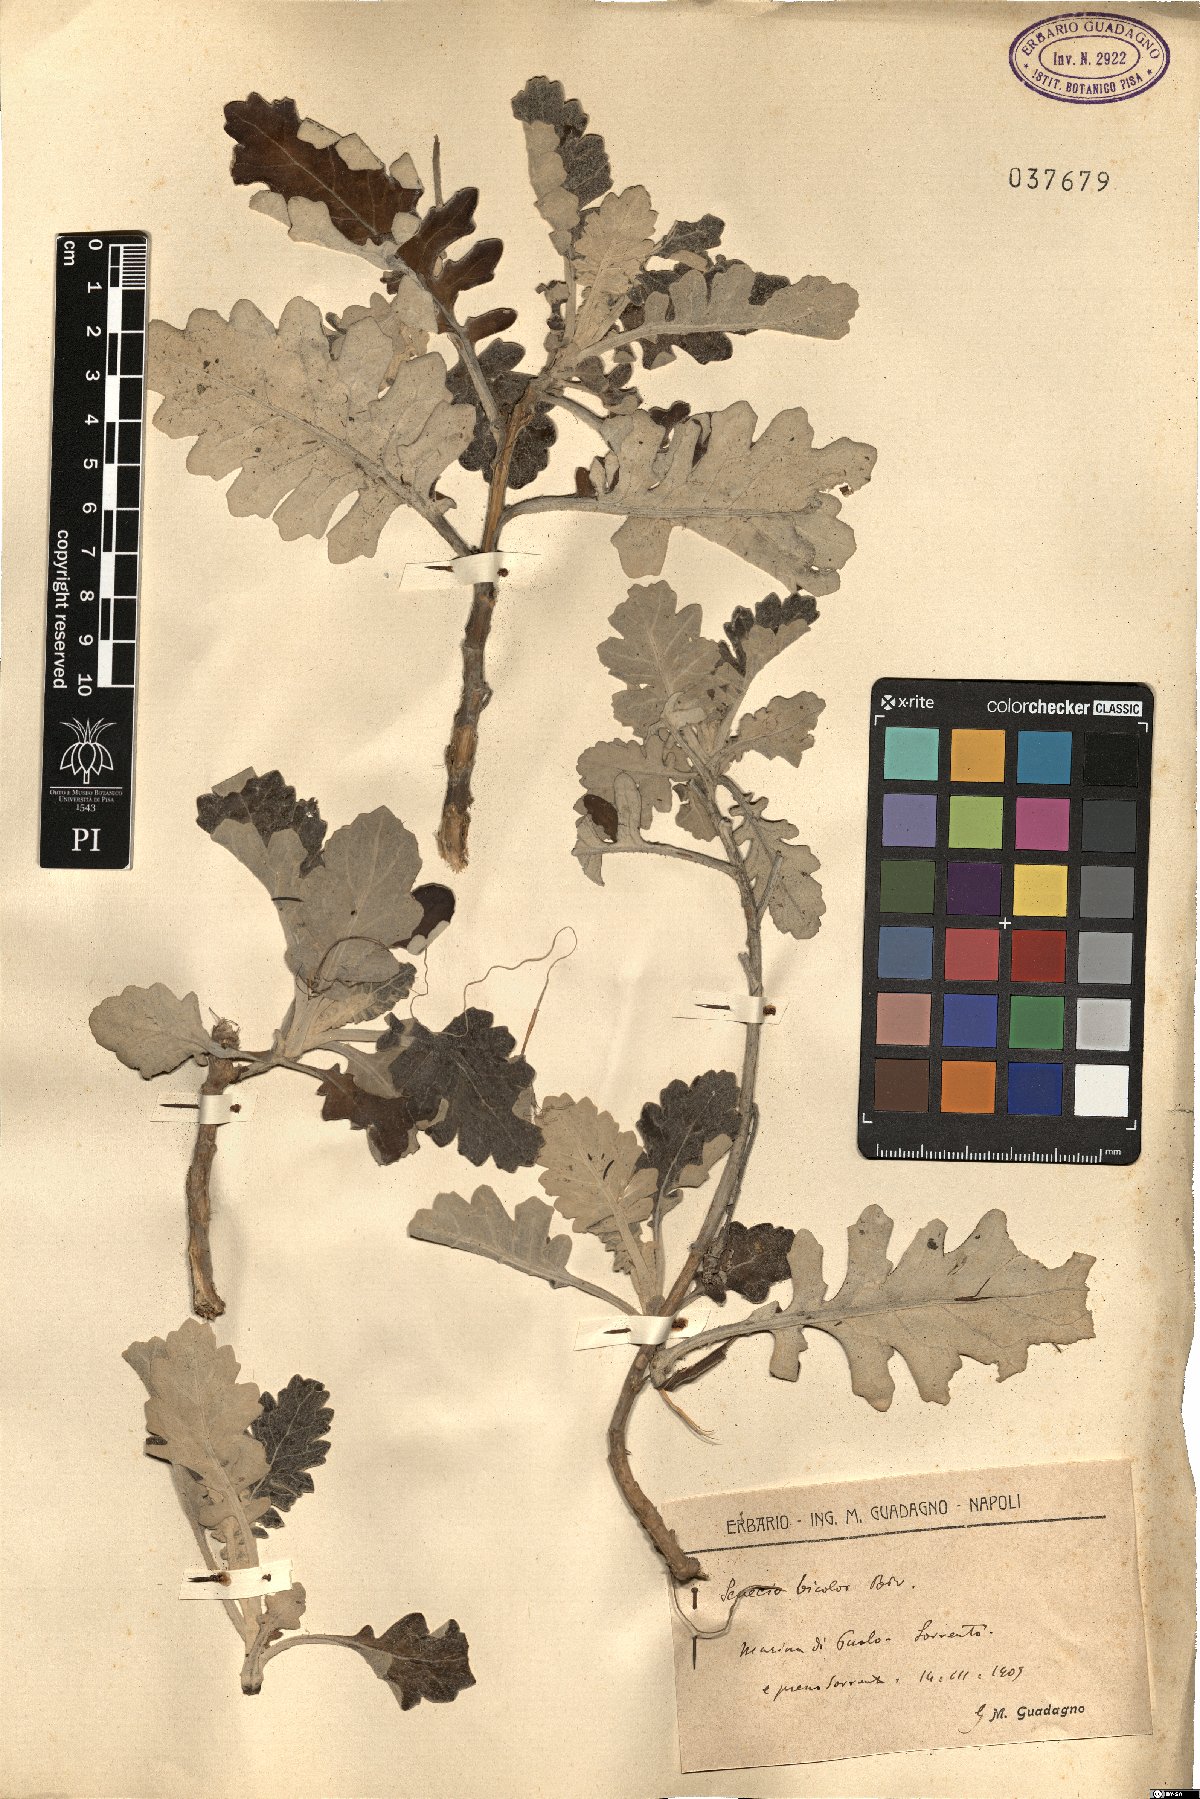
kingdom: Plantae
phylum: Tracheophyta
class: Magnoliopsida
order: Asterales
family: Asteraceae
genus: Jacobaea
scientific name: Jacobaea maritima
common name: Silver ragwort
